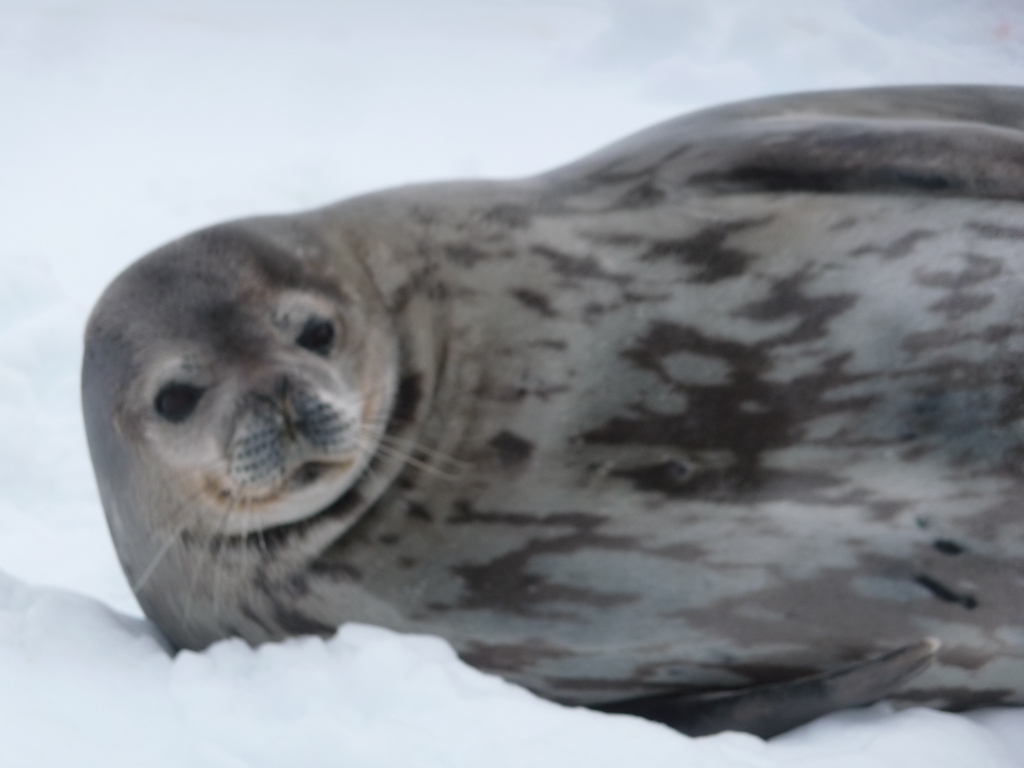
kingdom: Animalia
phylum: Chordata
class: Mammalia
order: Carnivora
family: Phocidae
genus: Leptonychotes
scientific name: Leptonychotes weddellii
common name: Weddell Seal
